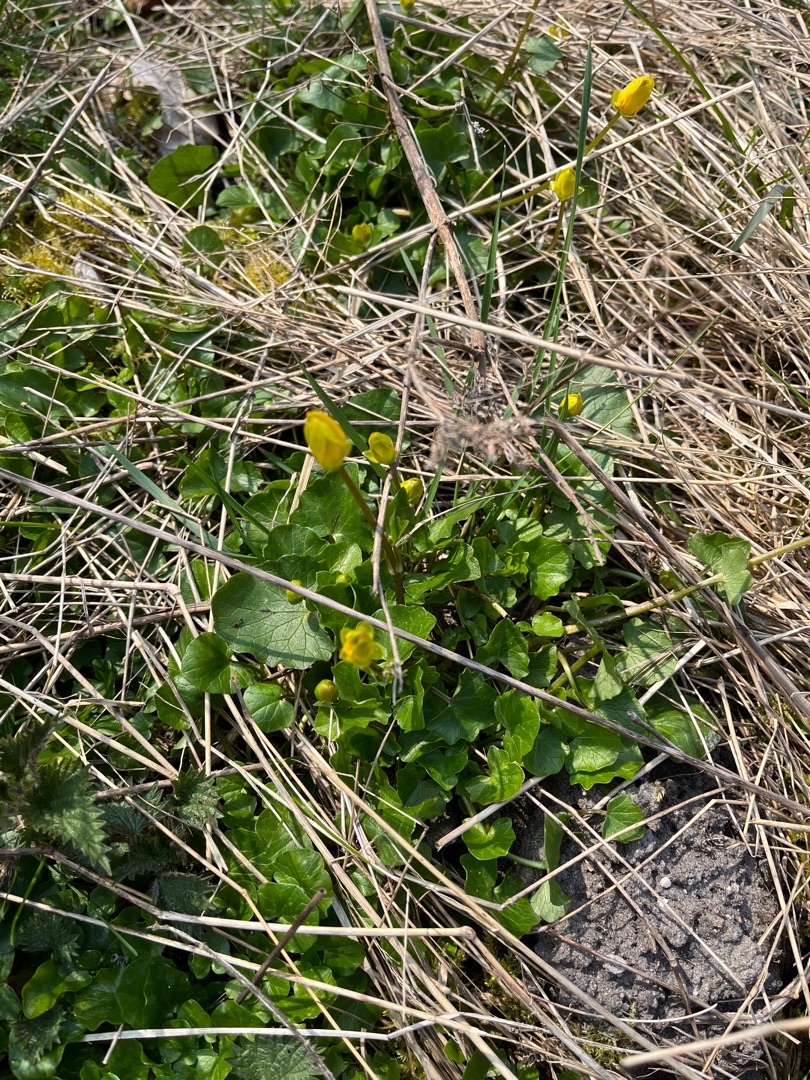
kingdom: Plantae
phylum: Tracheophyta
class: Magnoliopsida
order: Ranunculales
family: Ranunculaceae
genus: Ficaria
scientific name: Ficaria verna
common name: Vorterod
